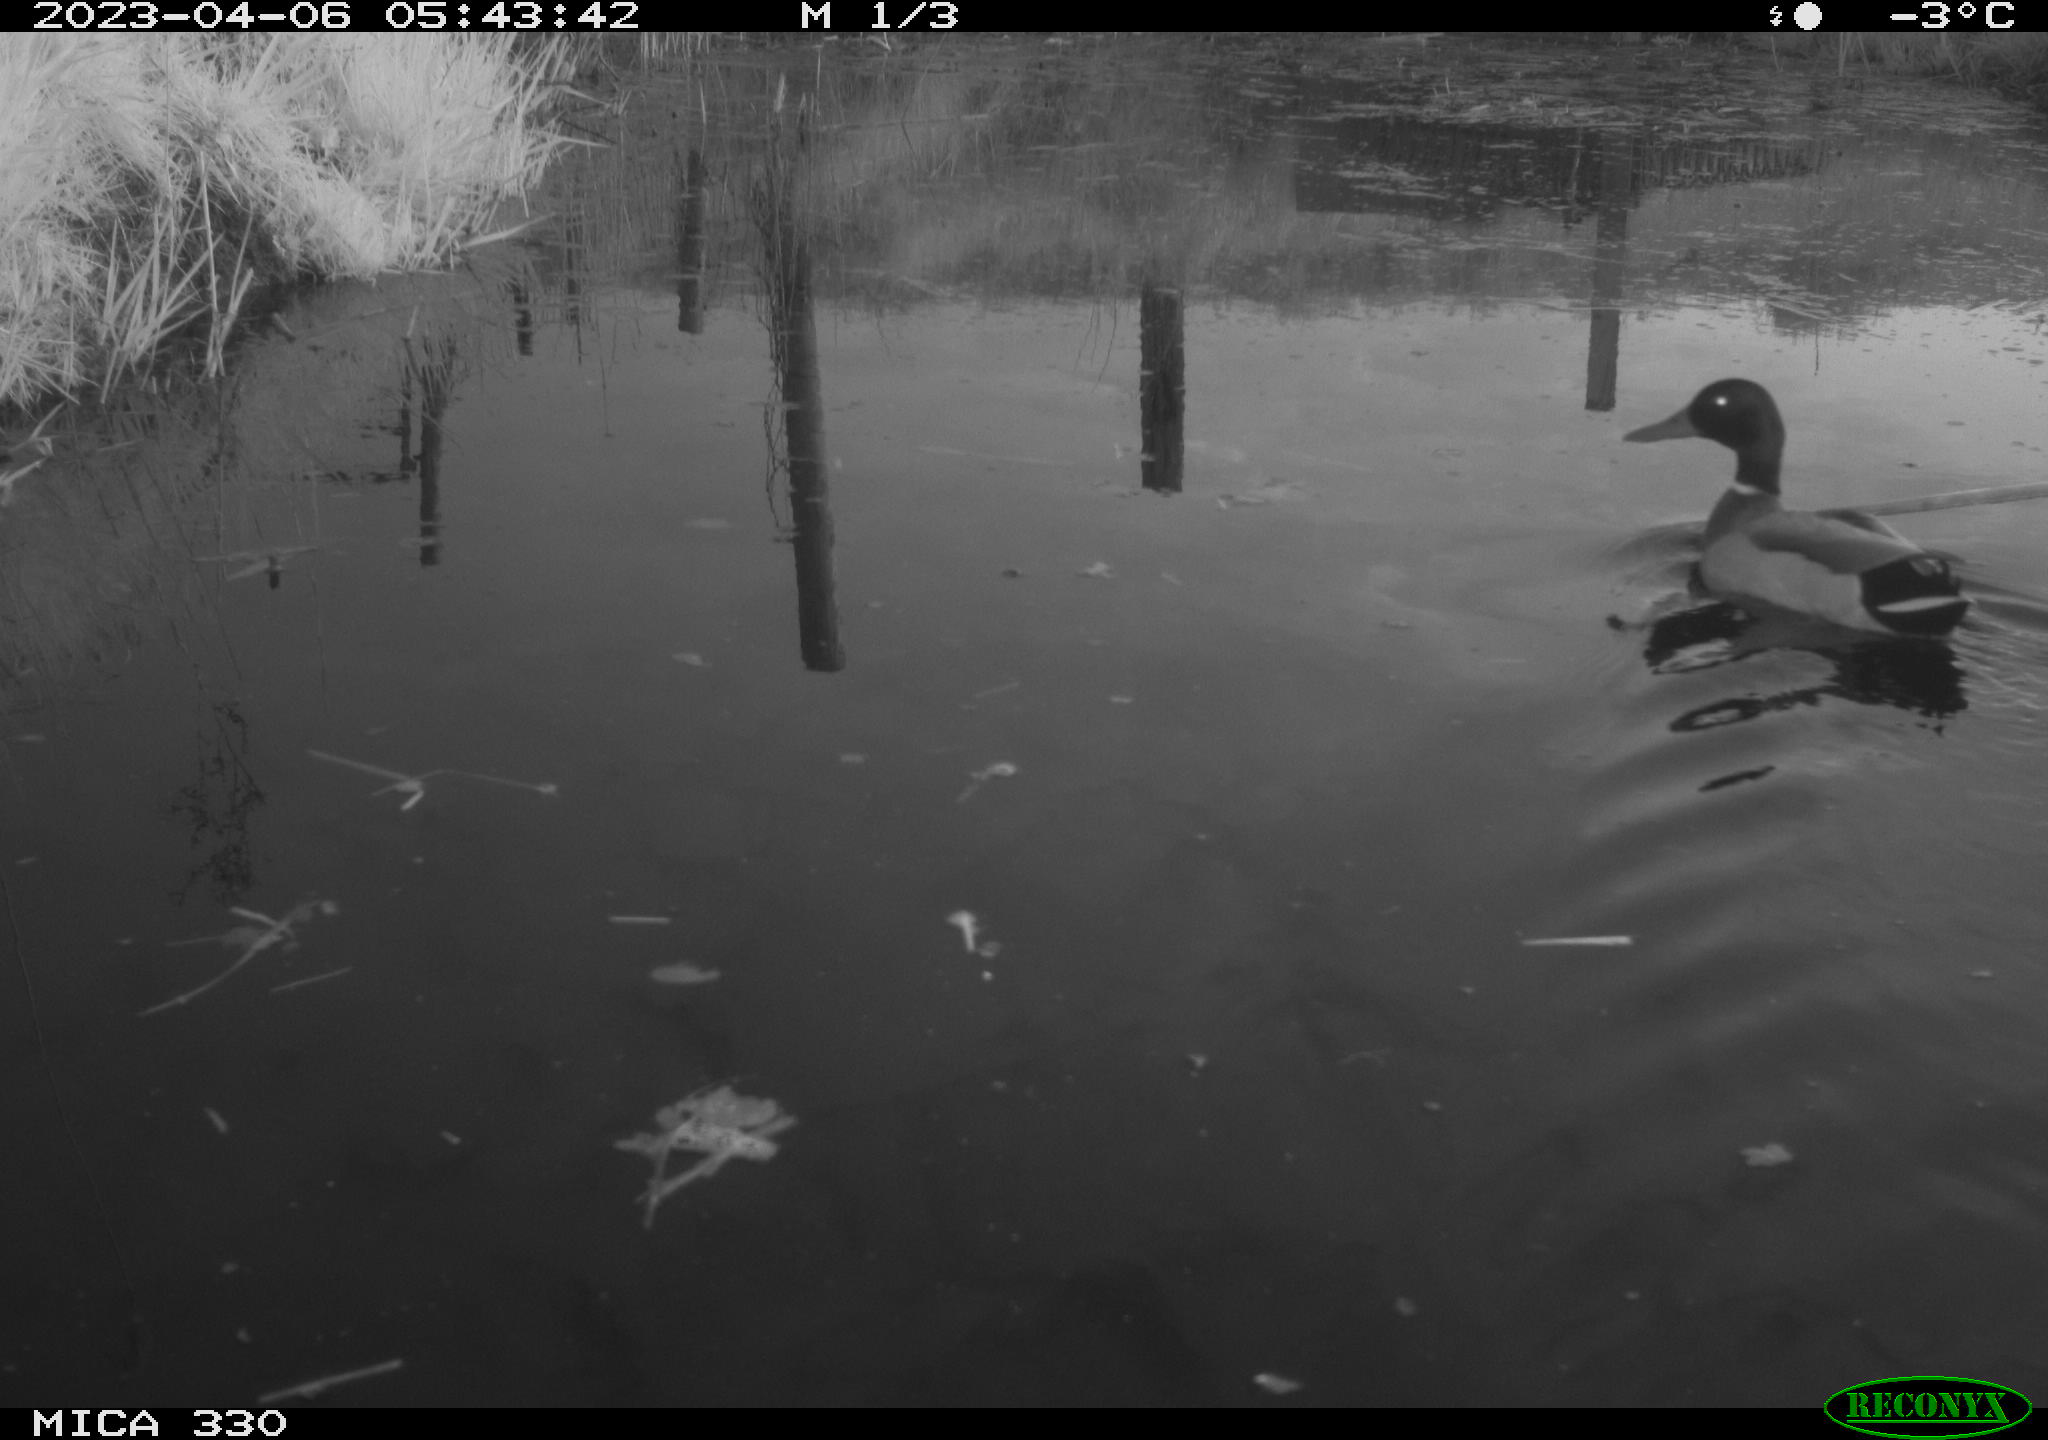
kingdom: Animalia
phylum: Chordata
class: Aves
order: Anseriformes
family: Anatidae
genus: Anas
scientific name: Anas
